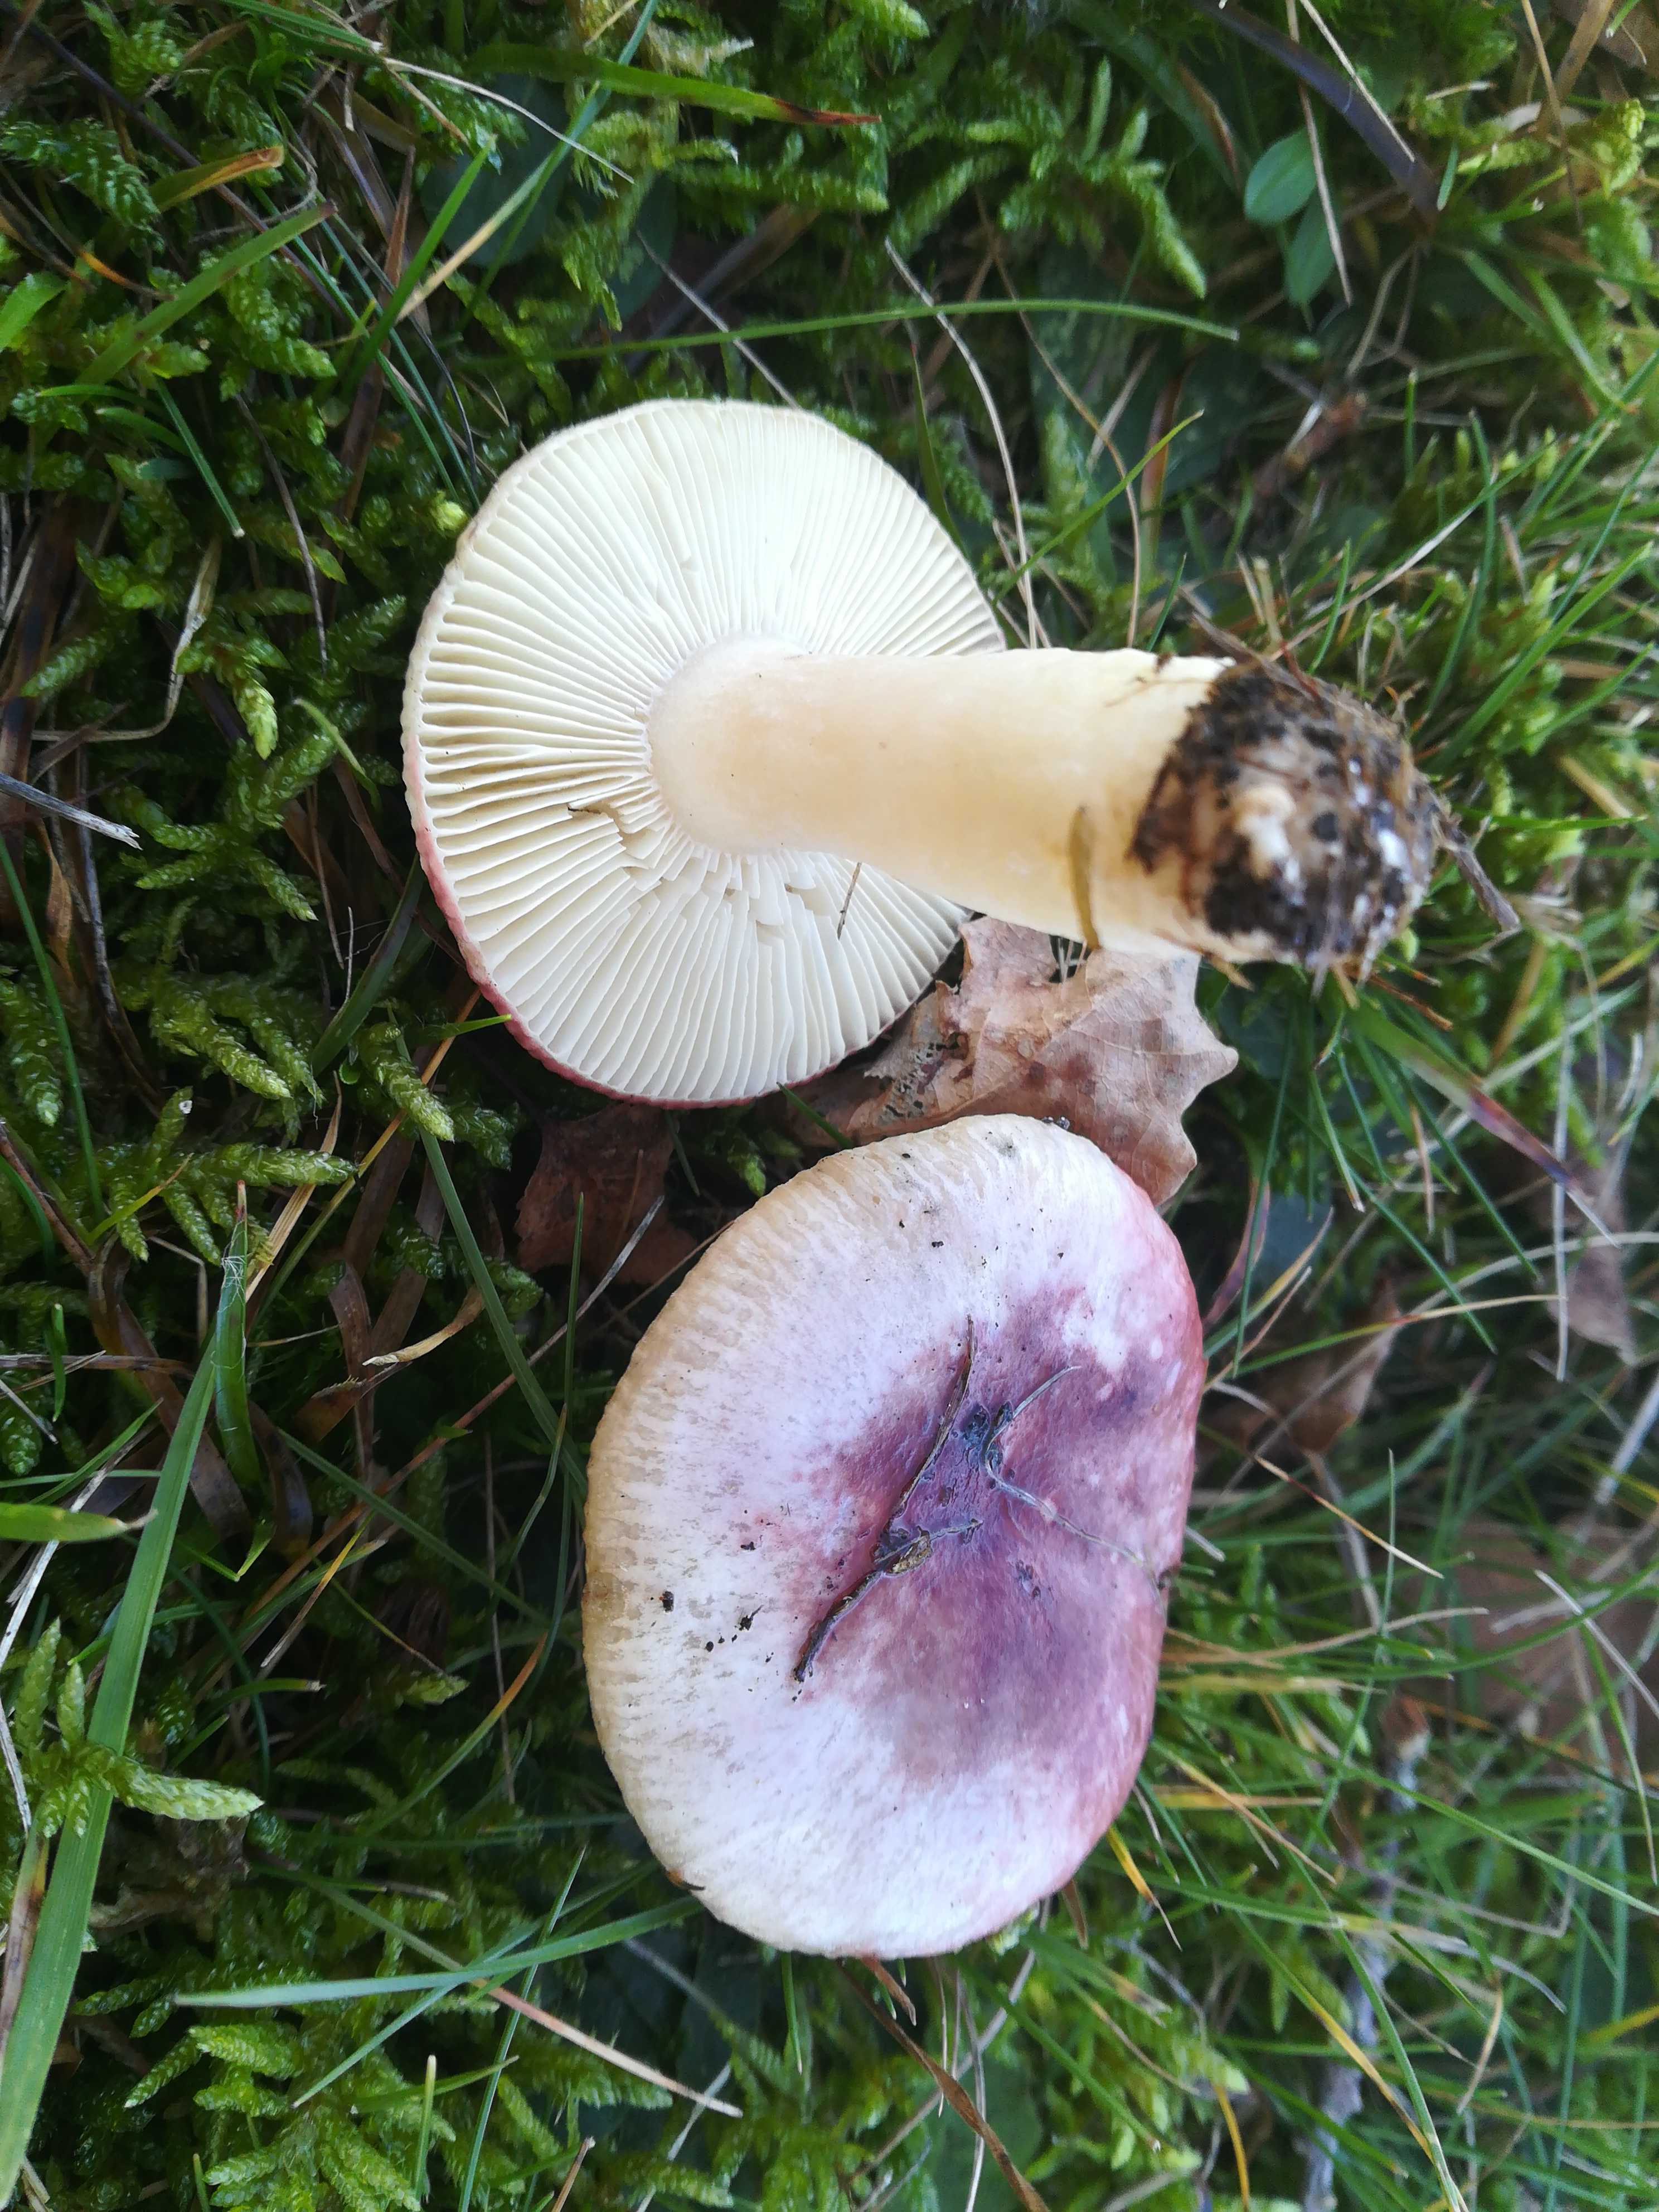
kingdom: Fungi
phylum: Basidiomycota
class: Agaricomycetes
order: Russulales
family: Russulaceae
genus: Russula
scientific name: Russula
